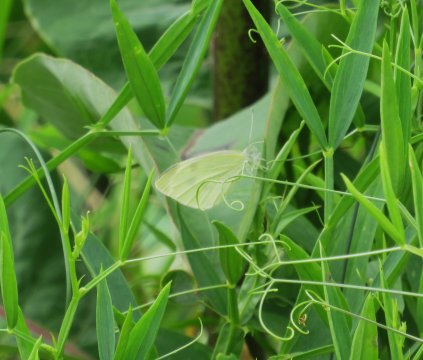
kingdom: Animalia
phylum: Arthropoda
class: Insecta
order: Lepidoptera
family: Pieridae
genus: Pieris
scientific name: Pieris rapae
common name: Cabbage White
